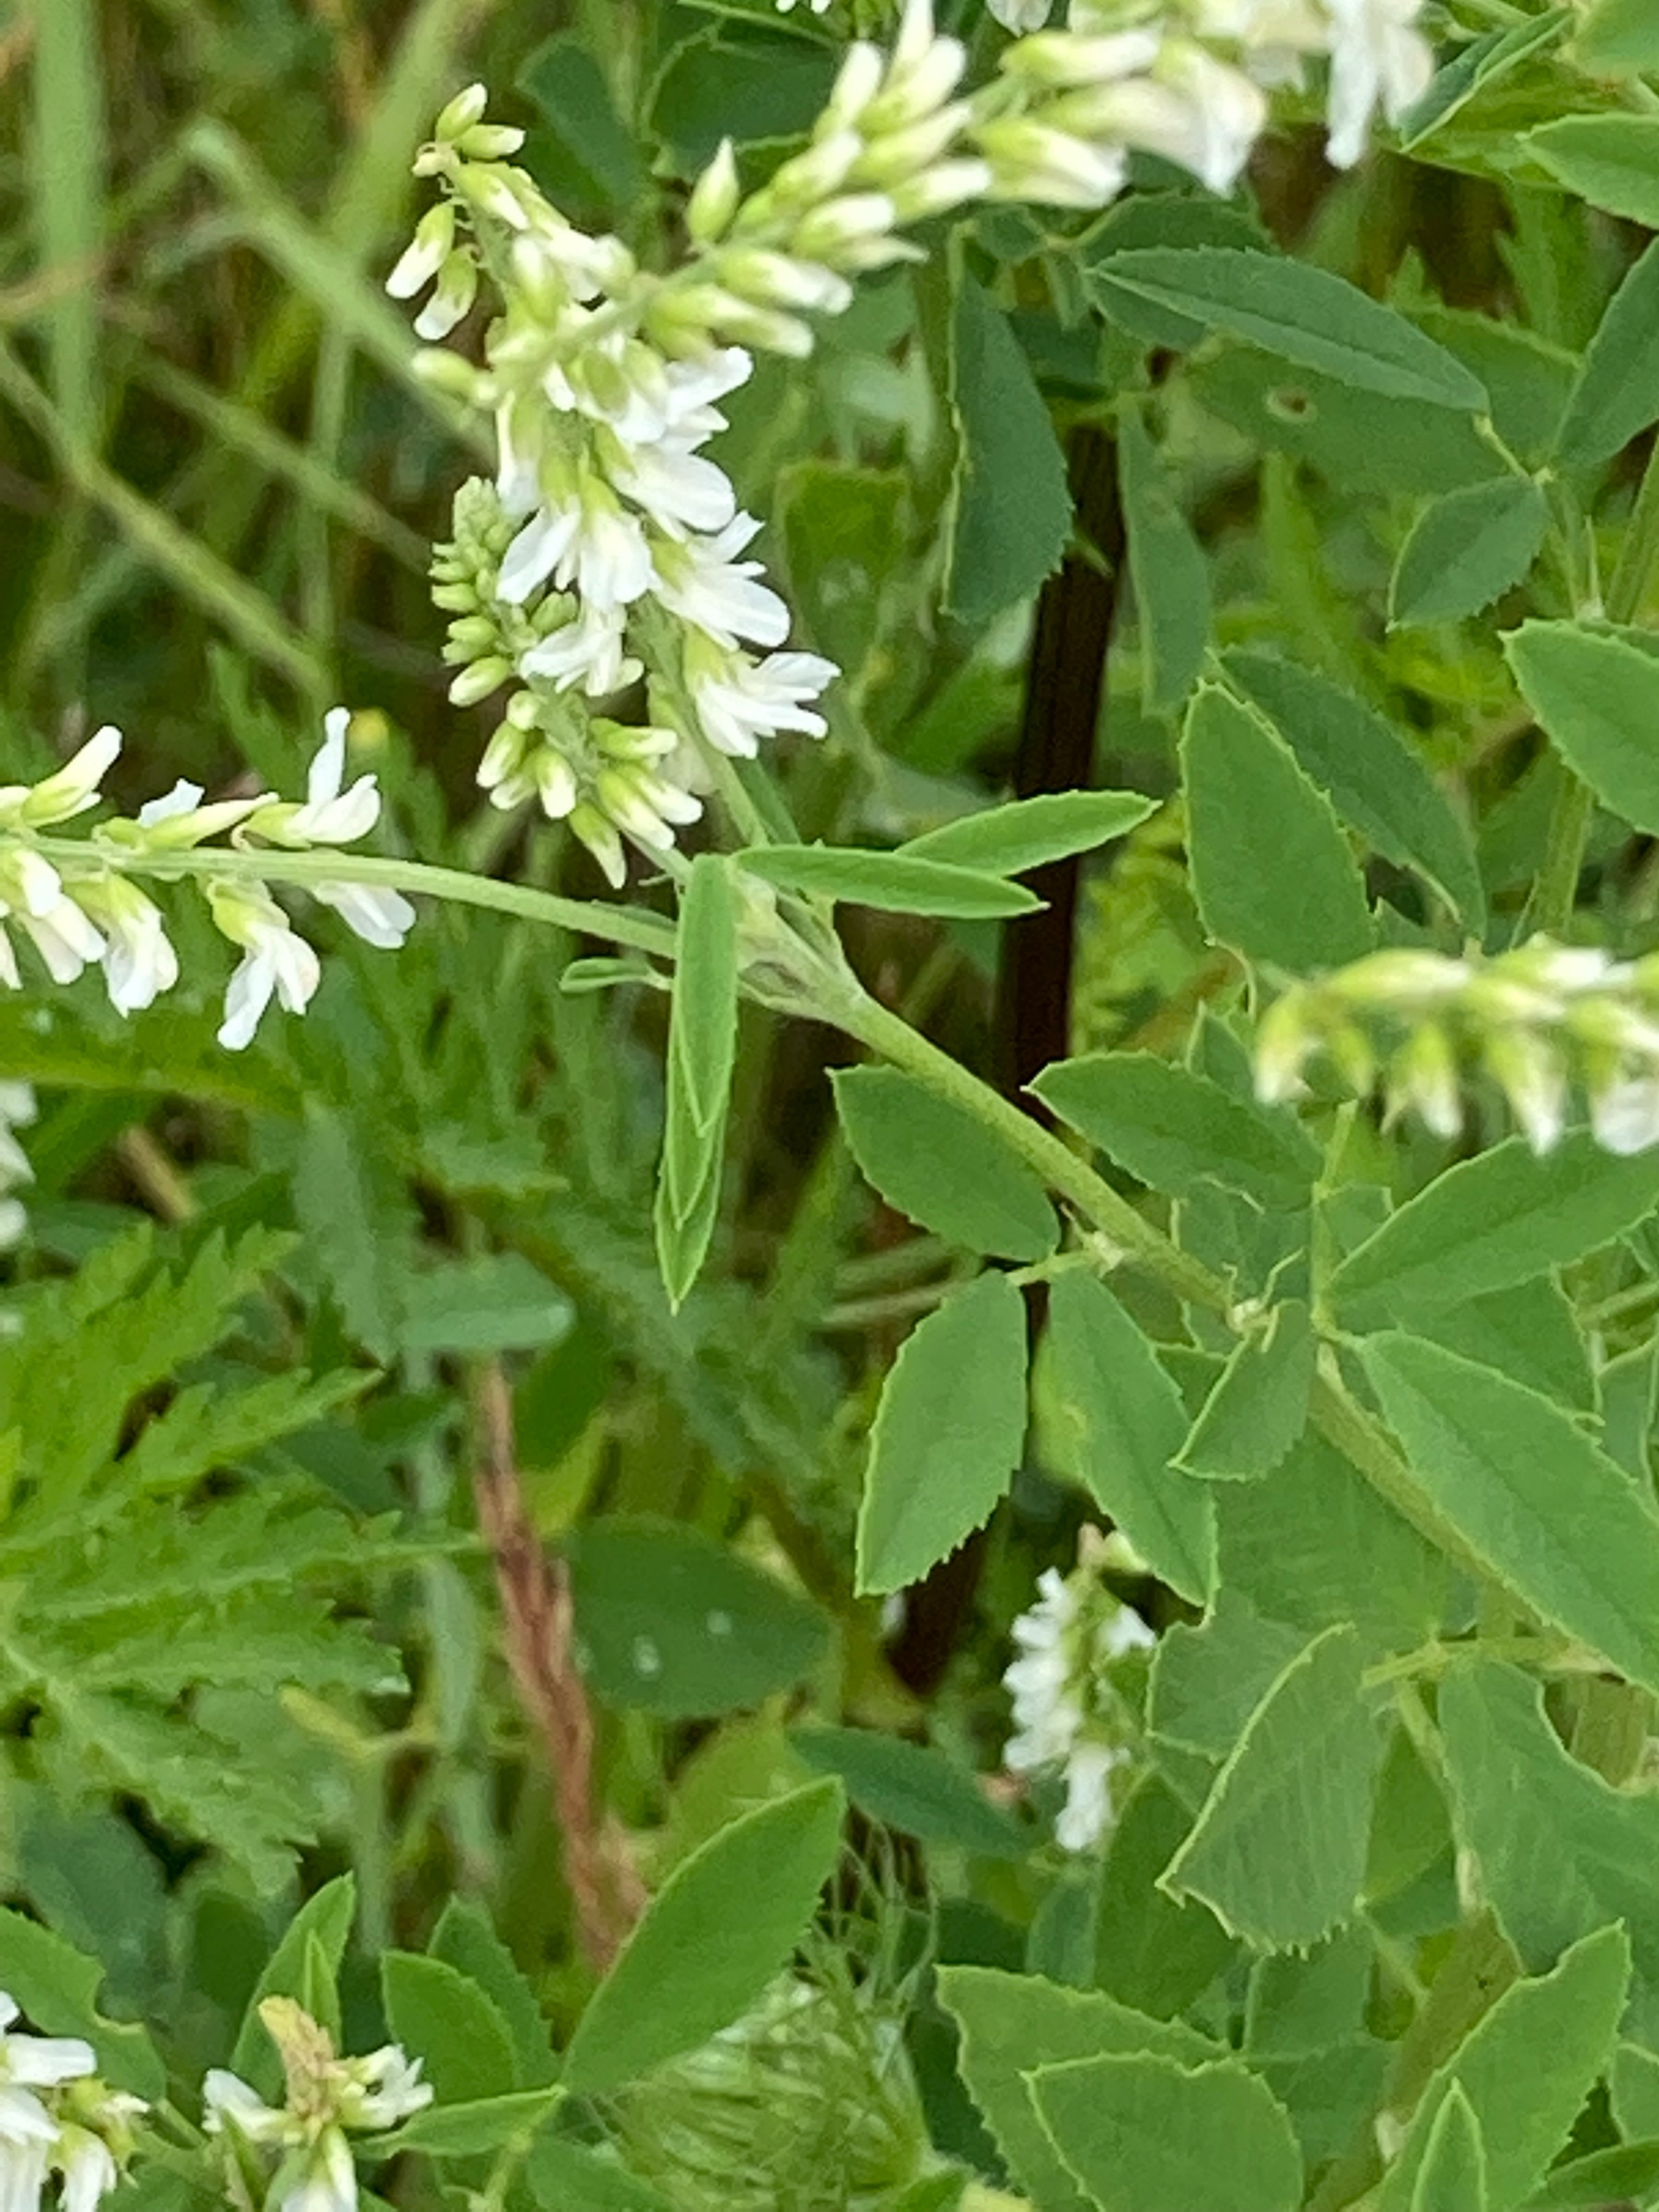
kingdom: Plantae
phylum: Tracheophyta
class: Magnoliopsida
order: Fabales
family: Fabaceae
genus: Melilotus
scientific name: Melilotus albus
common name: Hvid stenkløver
